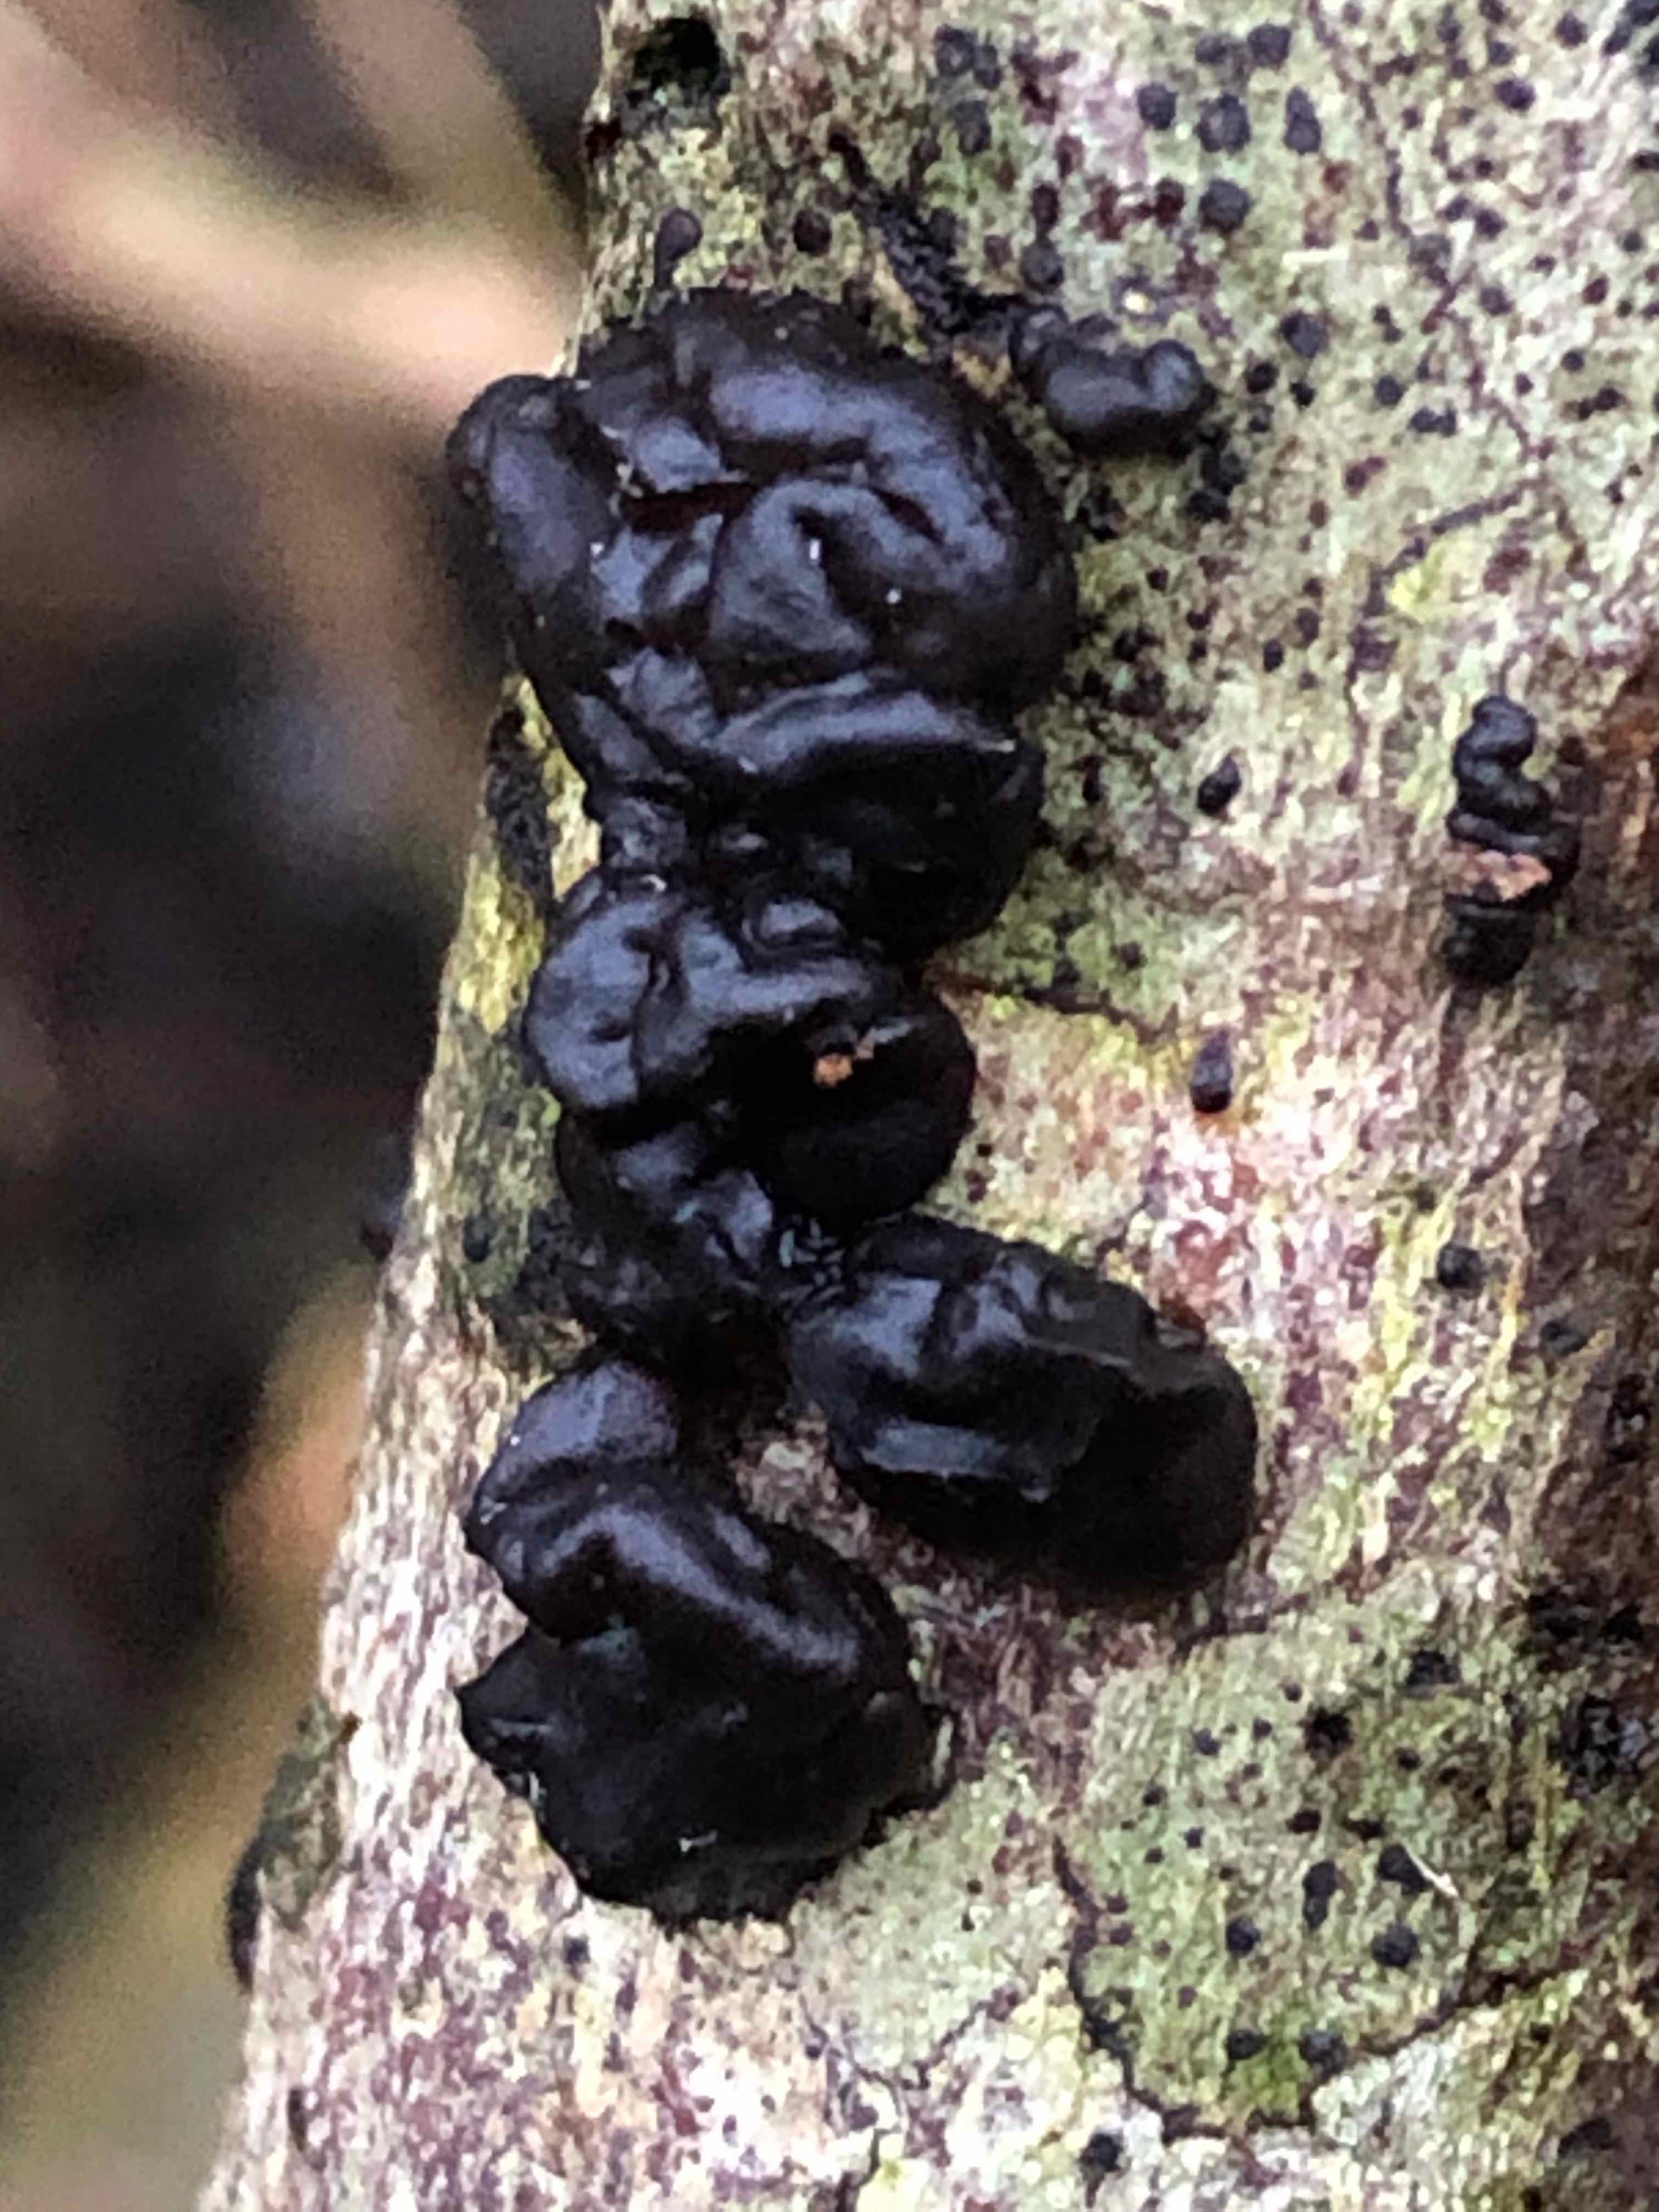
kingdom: Fungi
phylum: Basidiomycota
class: Agaricomycetes
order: Auriculariales
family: Auriculariaceae
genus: Exidia
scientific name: Exidia nigricans
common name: almindelig bævretop
